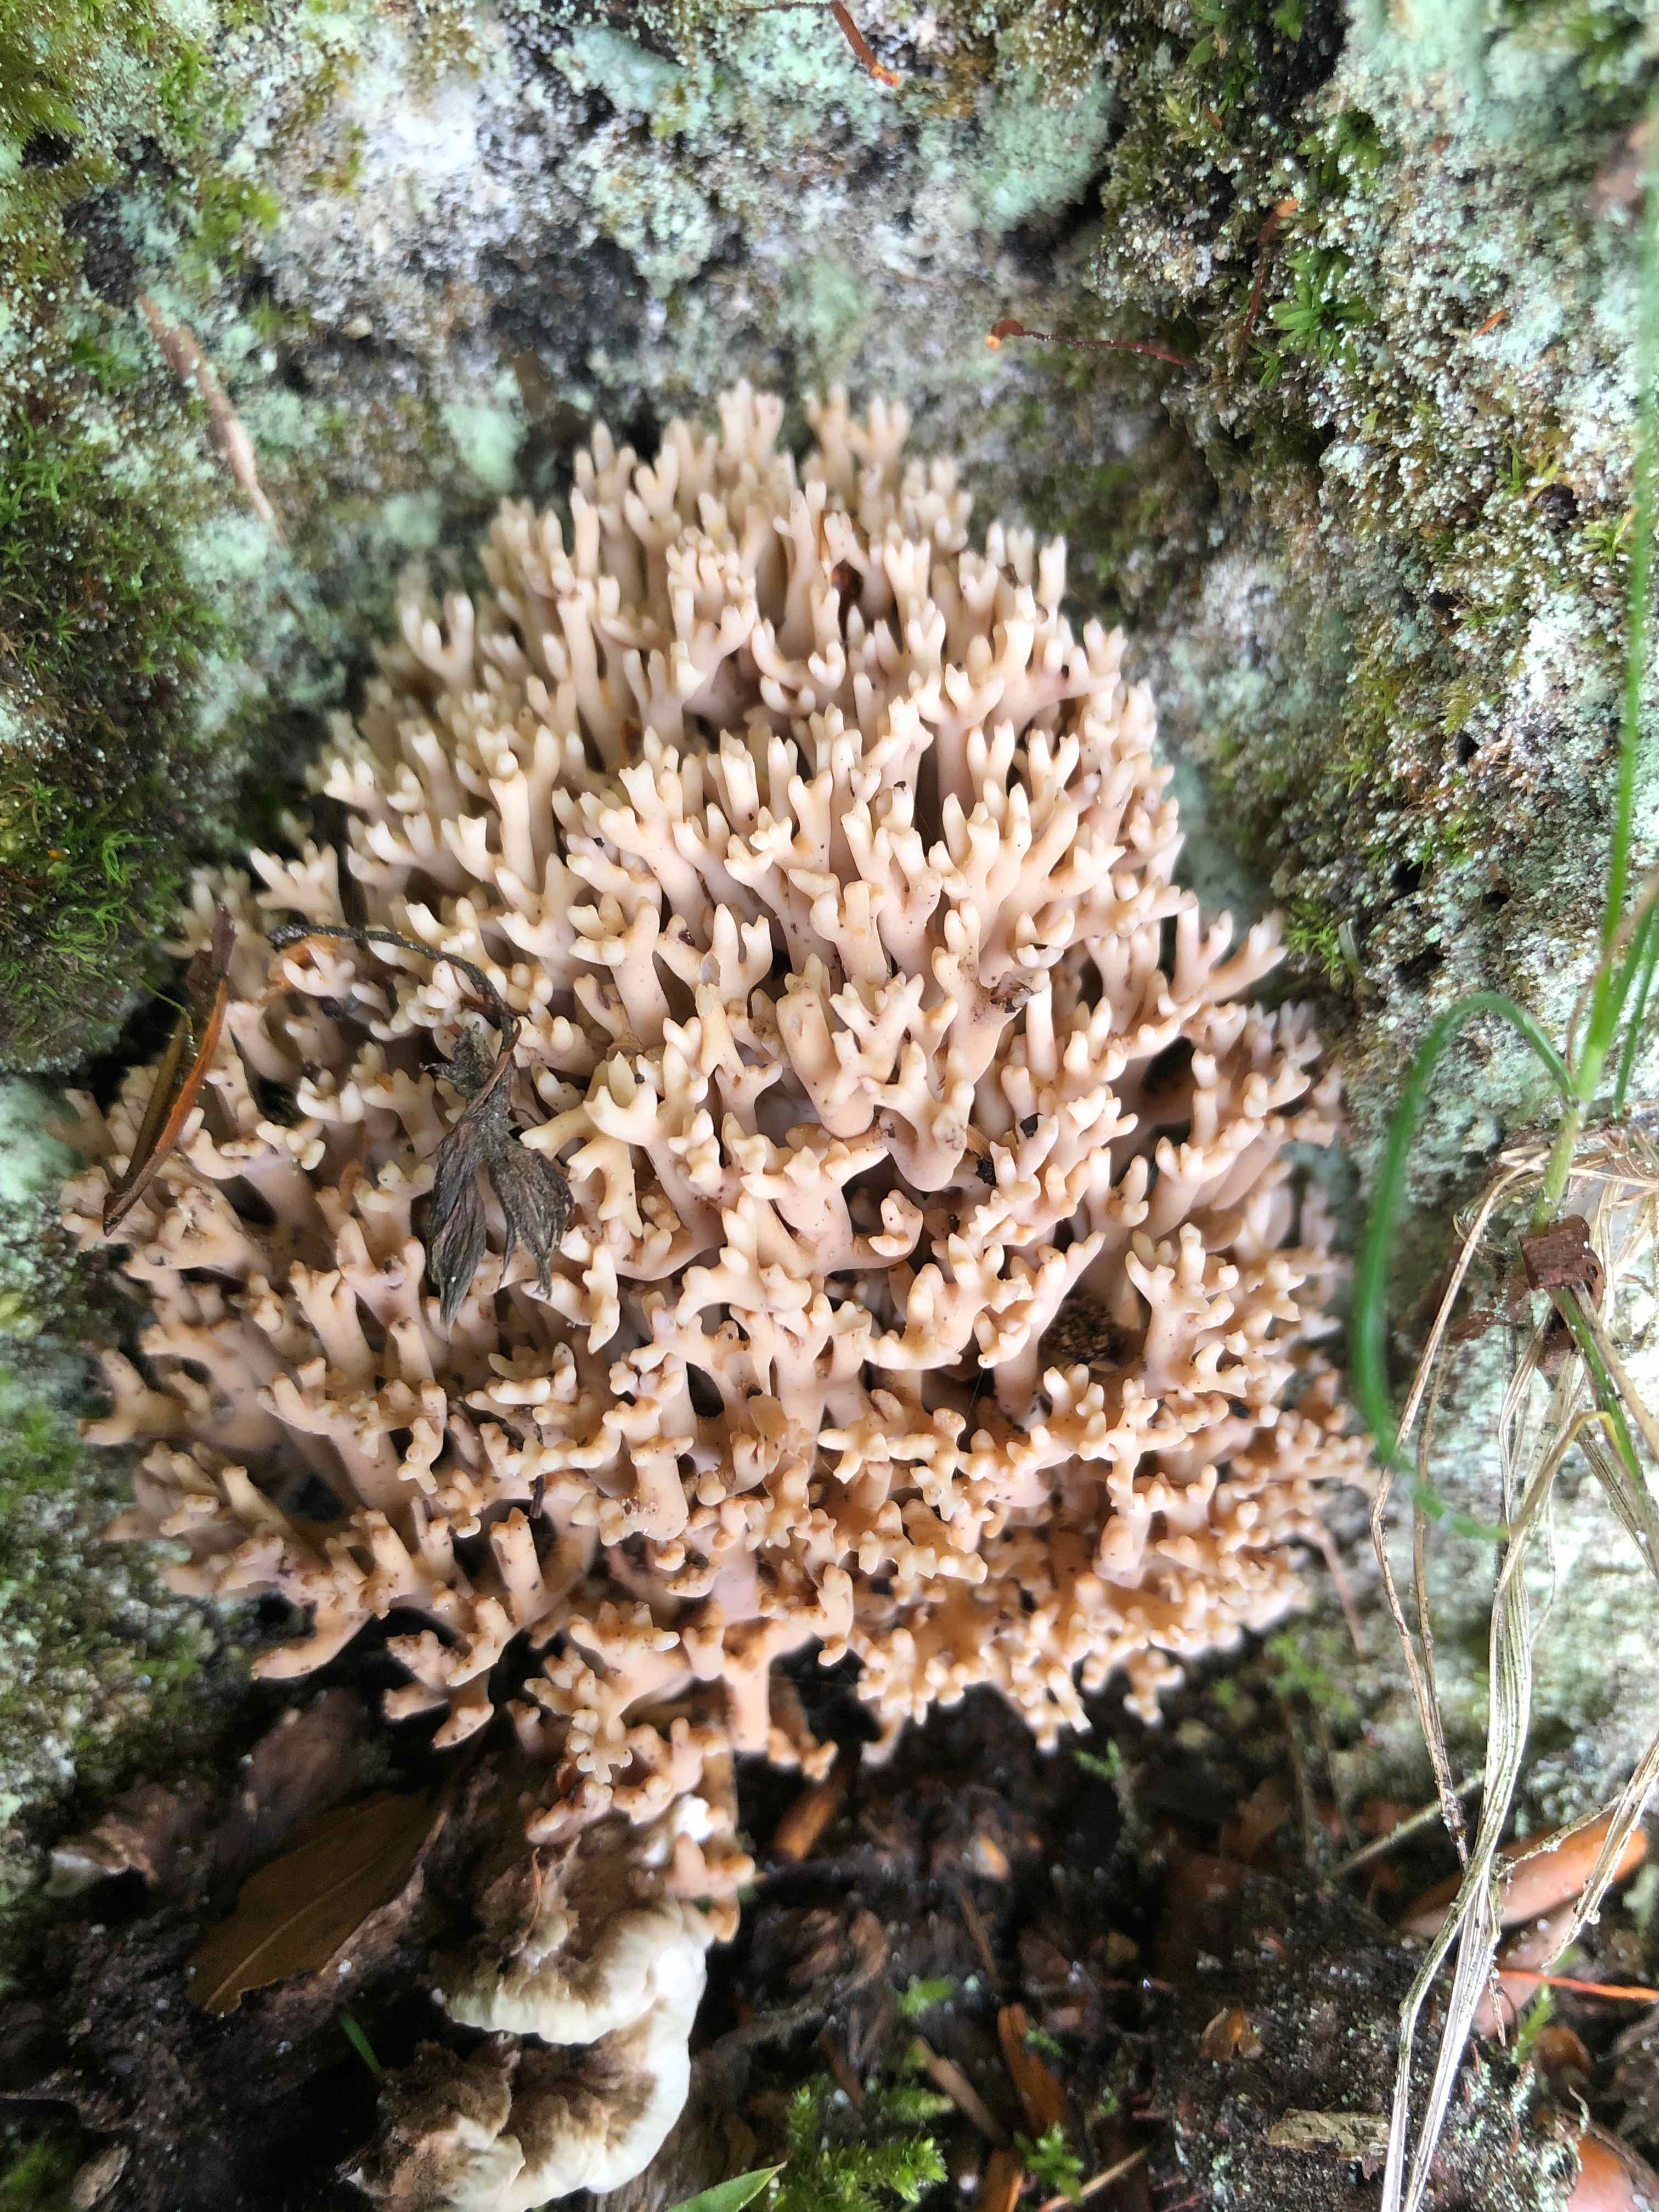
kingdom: Fungi
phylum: Basidiomycota
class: Agaricomycetes
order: Gomphales
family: Gomphaceae
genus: Ramaria
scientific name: Ramaria
